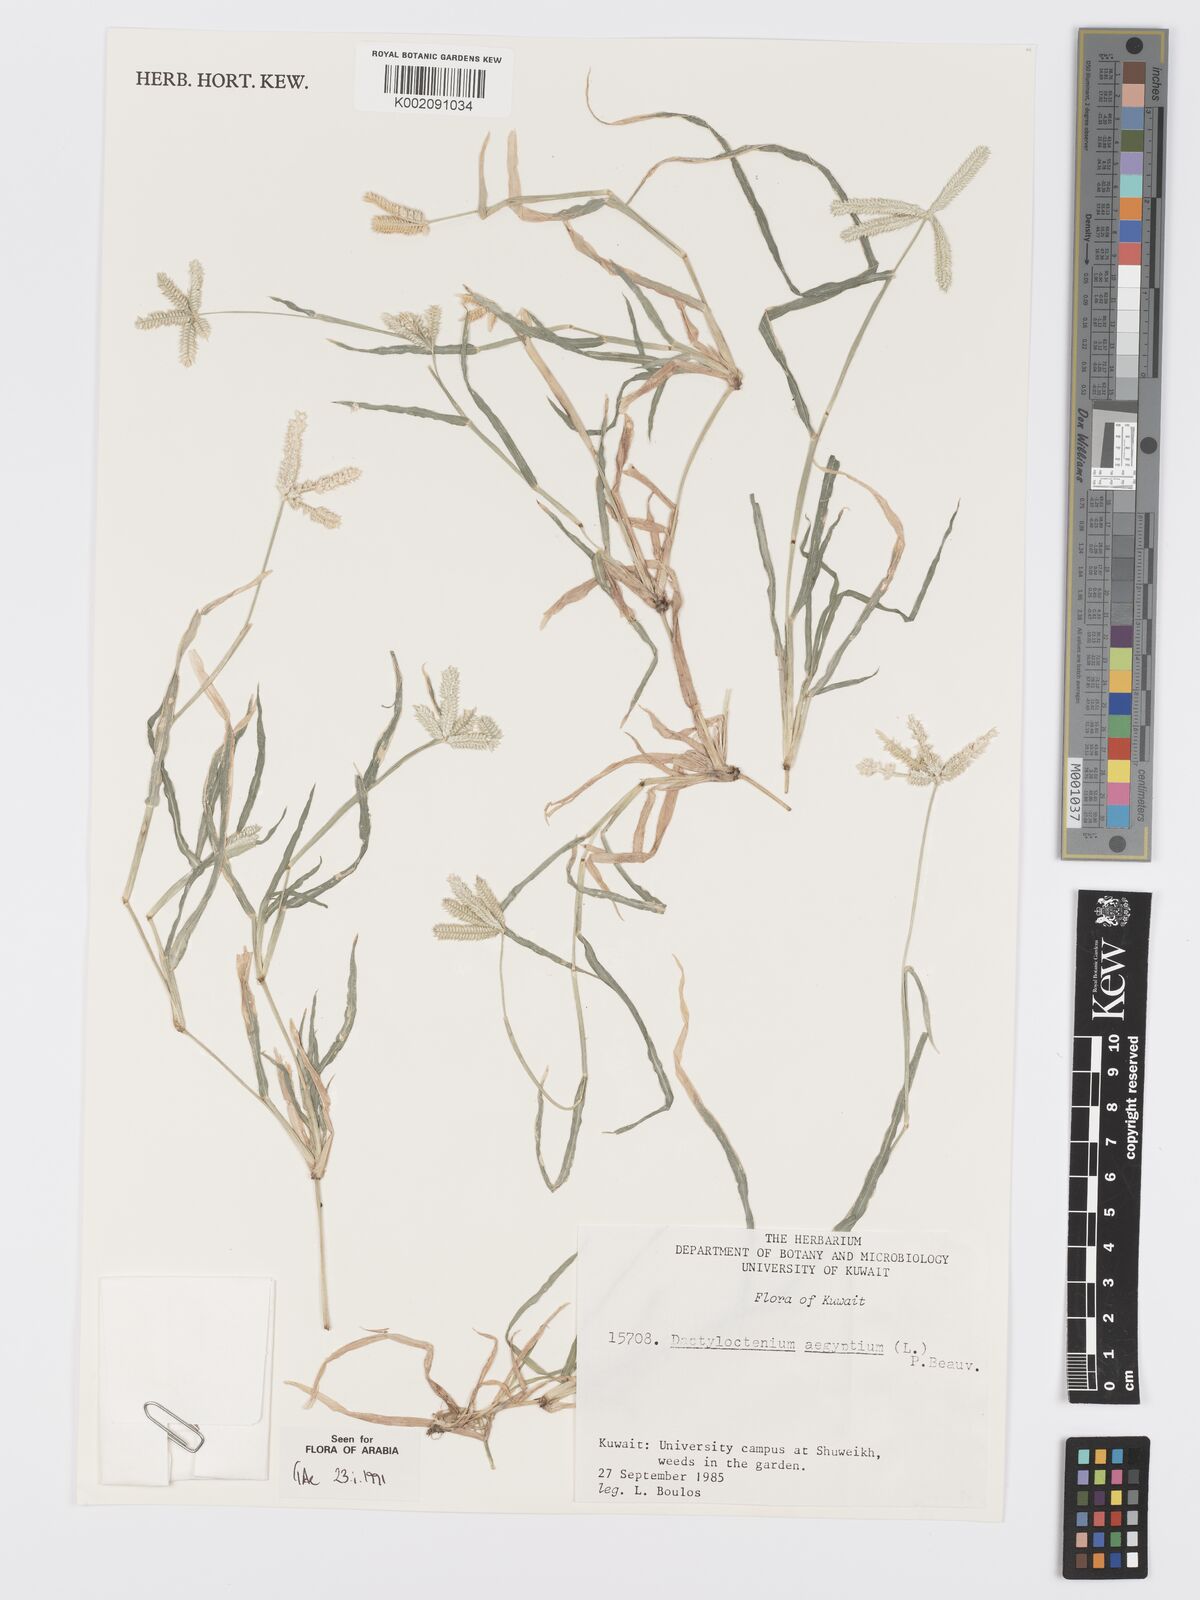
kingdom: Plantae
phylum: Tracheophyta
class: Liliopsida
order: Poales
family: Poaceae
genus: Dactyloctenium
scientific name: Dactyloctenium aegyptium
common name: Egyptian grass
